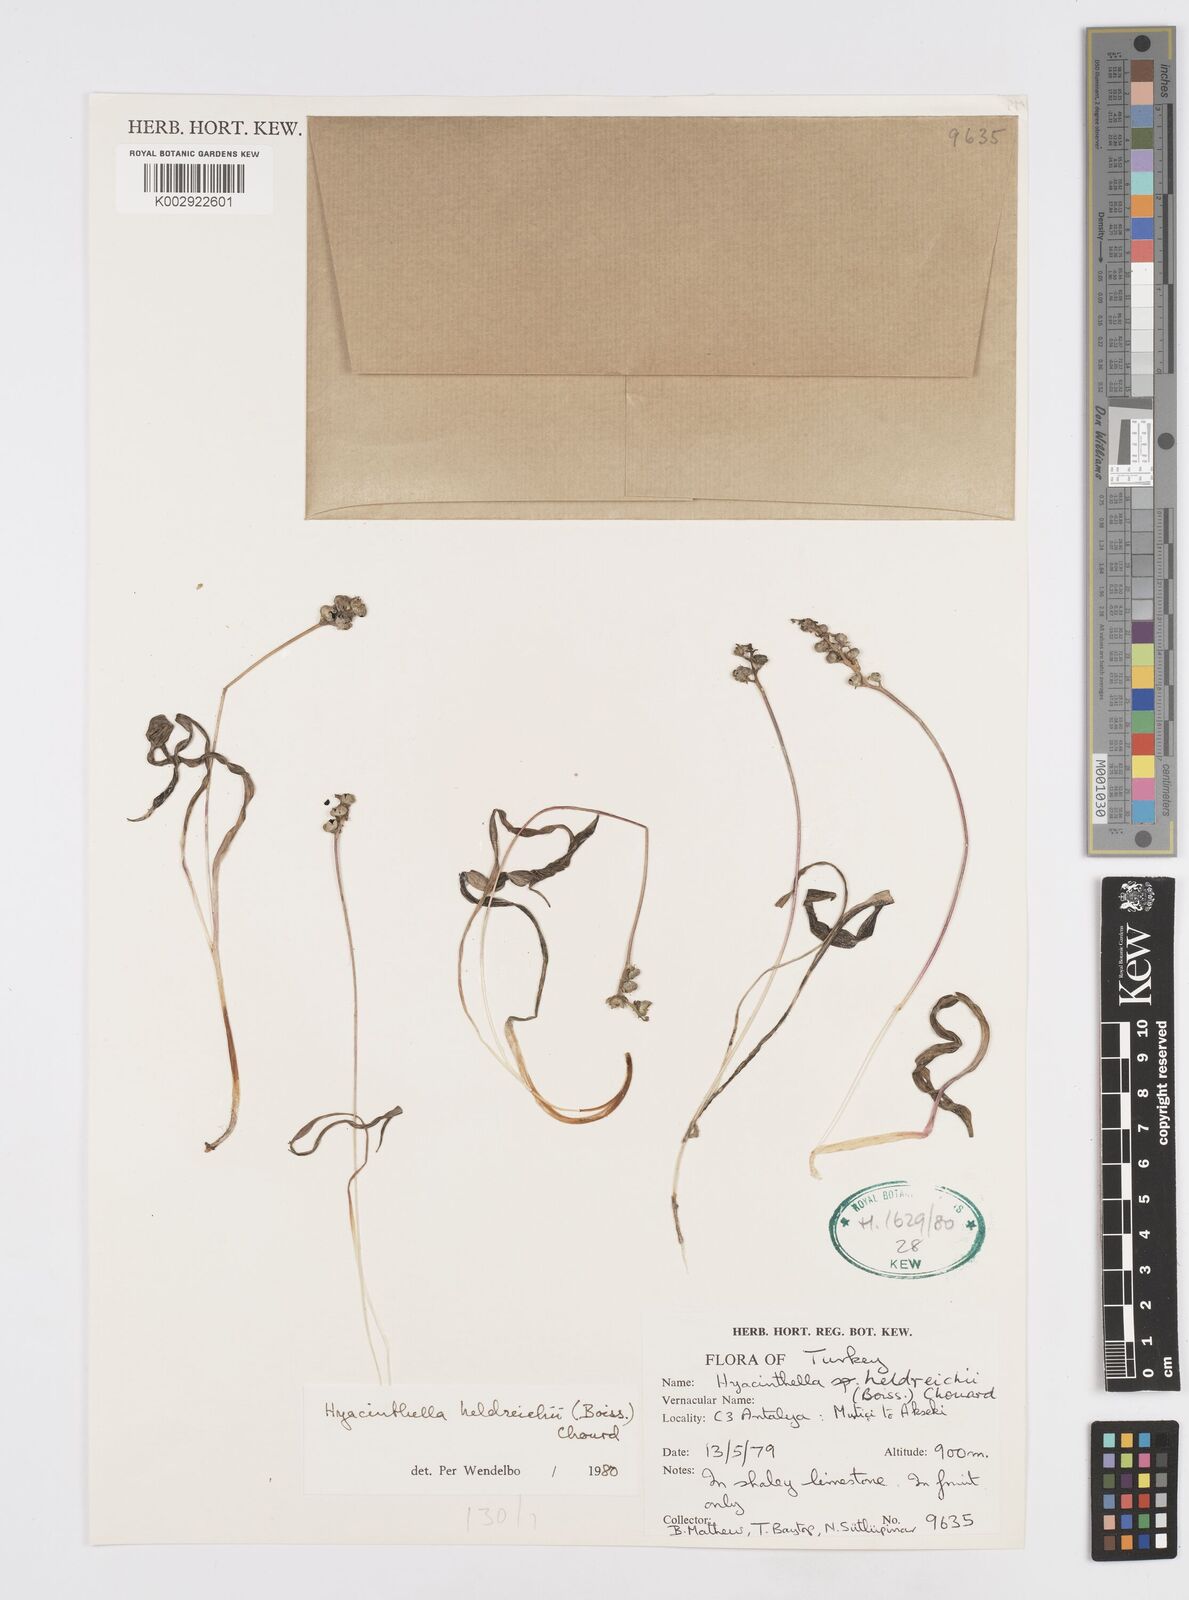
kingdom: Plantae
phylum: Tracheophyta
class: Liliopsida
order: Asparagales
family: Asparagaceae
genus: Hyacinthella
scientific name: Hyacinthella heldreichii
